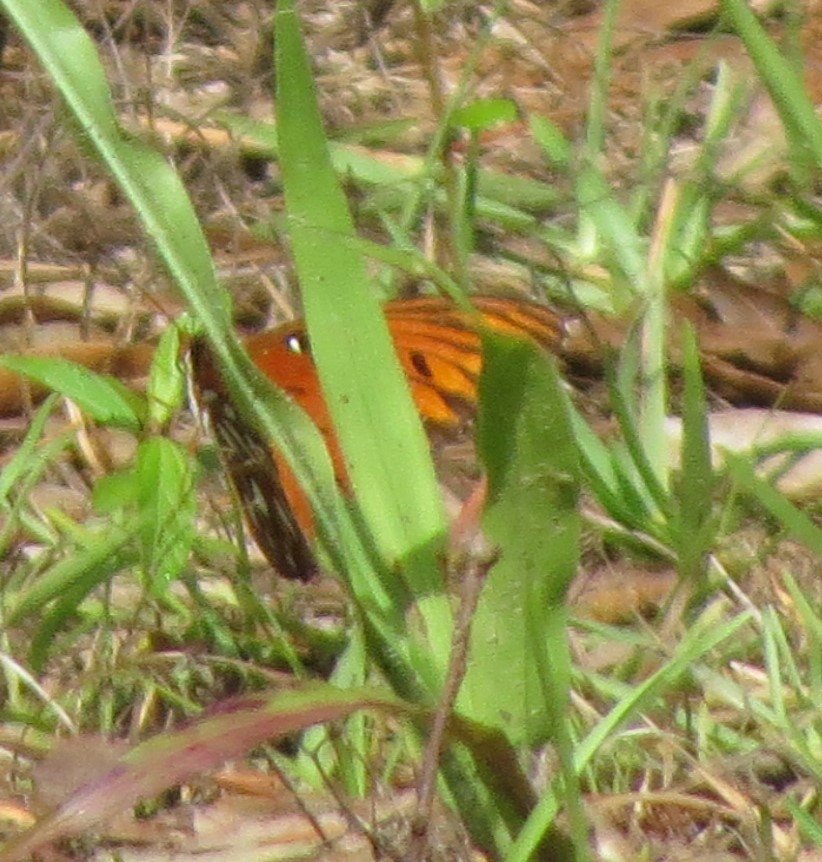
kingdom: Animalia
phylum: Arthropoda
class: Insecta
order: Lepidoptera
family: Nymphalidae
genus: Dione
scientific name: Dione vanillae
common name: Gulf Fritillary
